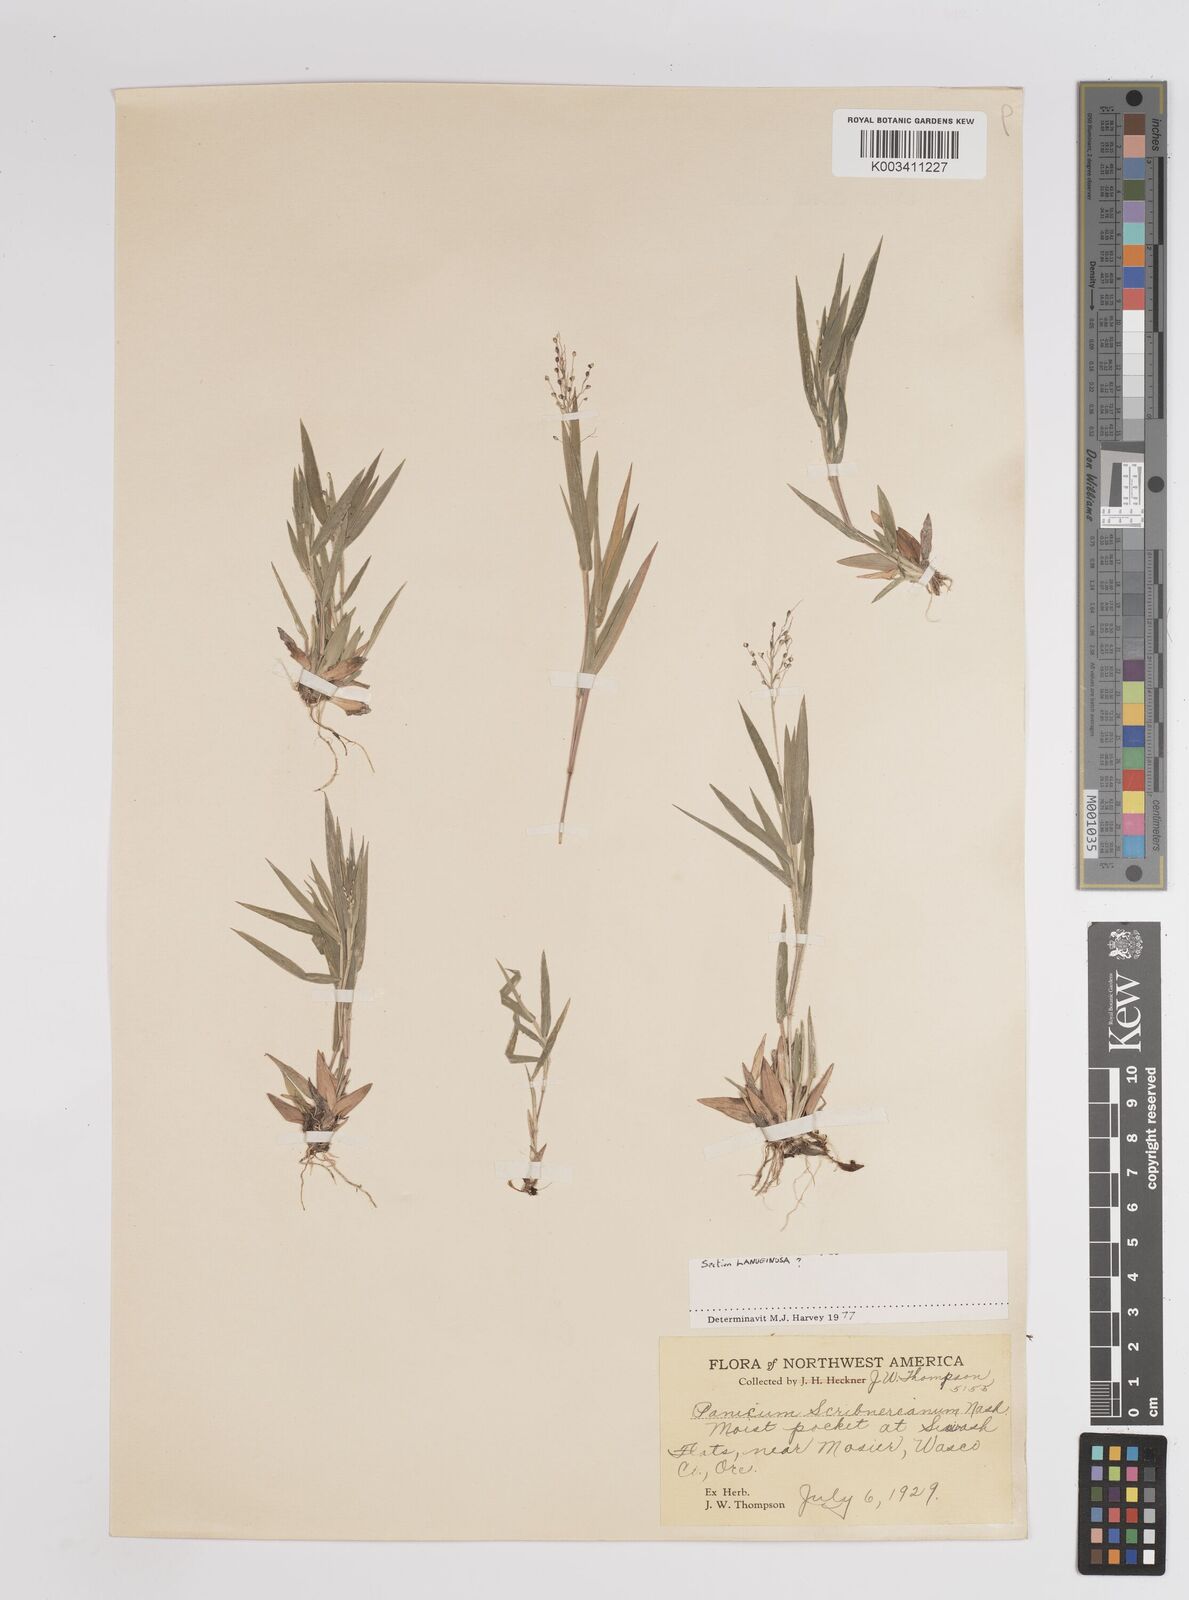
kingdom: Plantae
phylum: Tracheophyta
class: Liliopsida
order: Poales
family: Poaceae
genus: Dichanthelium
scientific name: Dichanthelium scribnerianum
